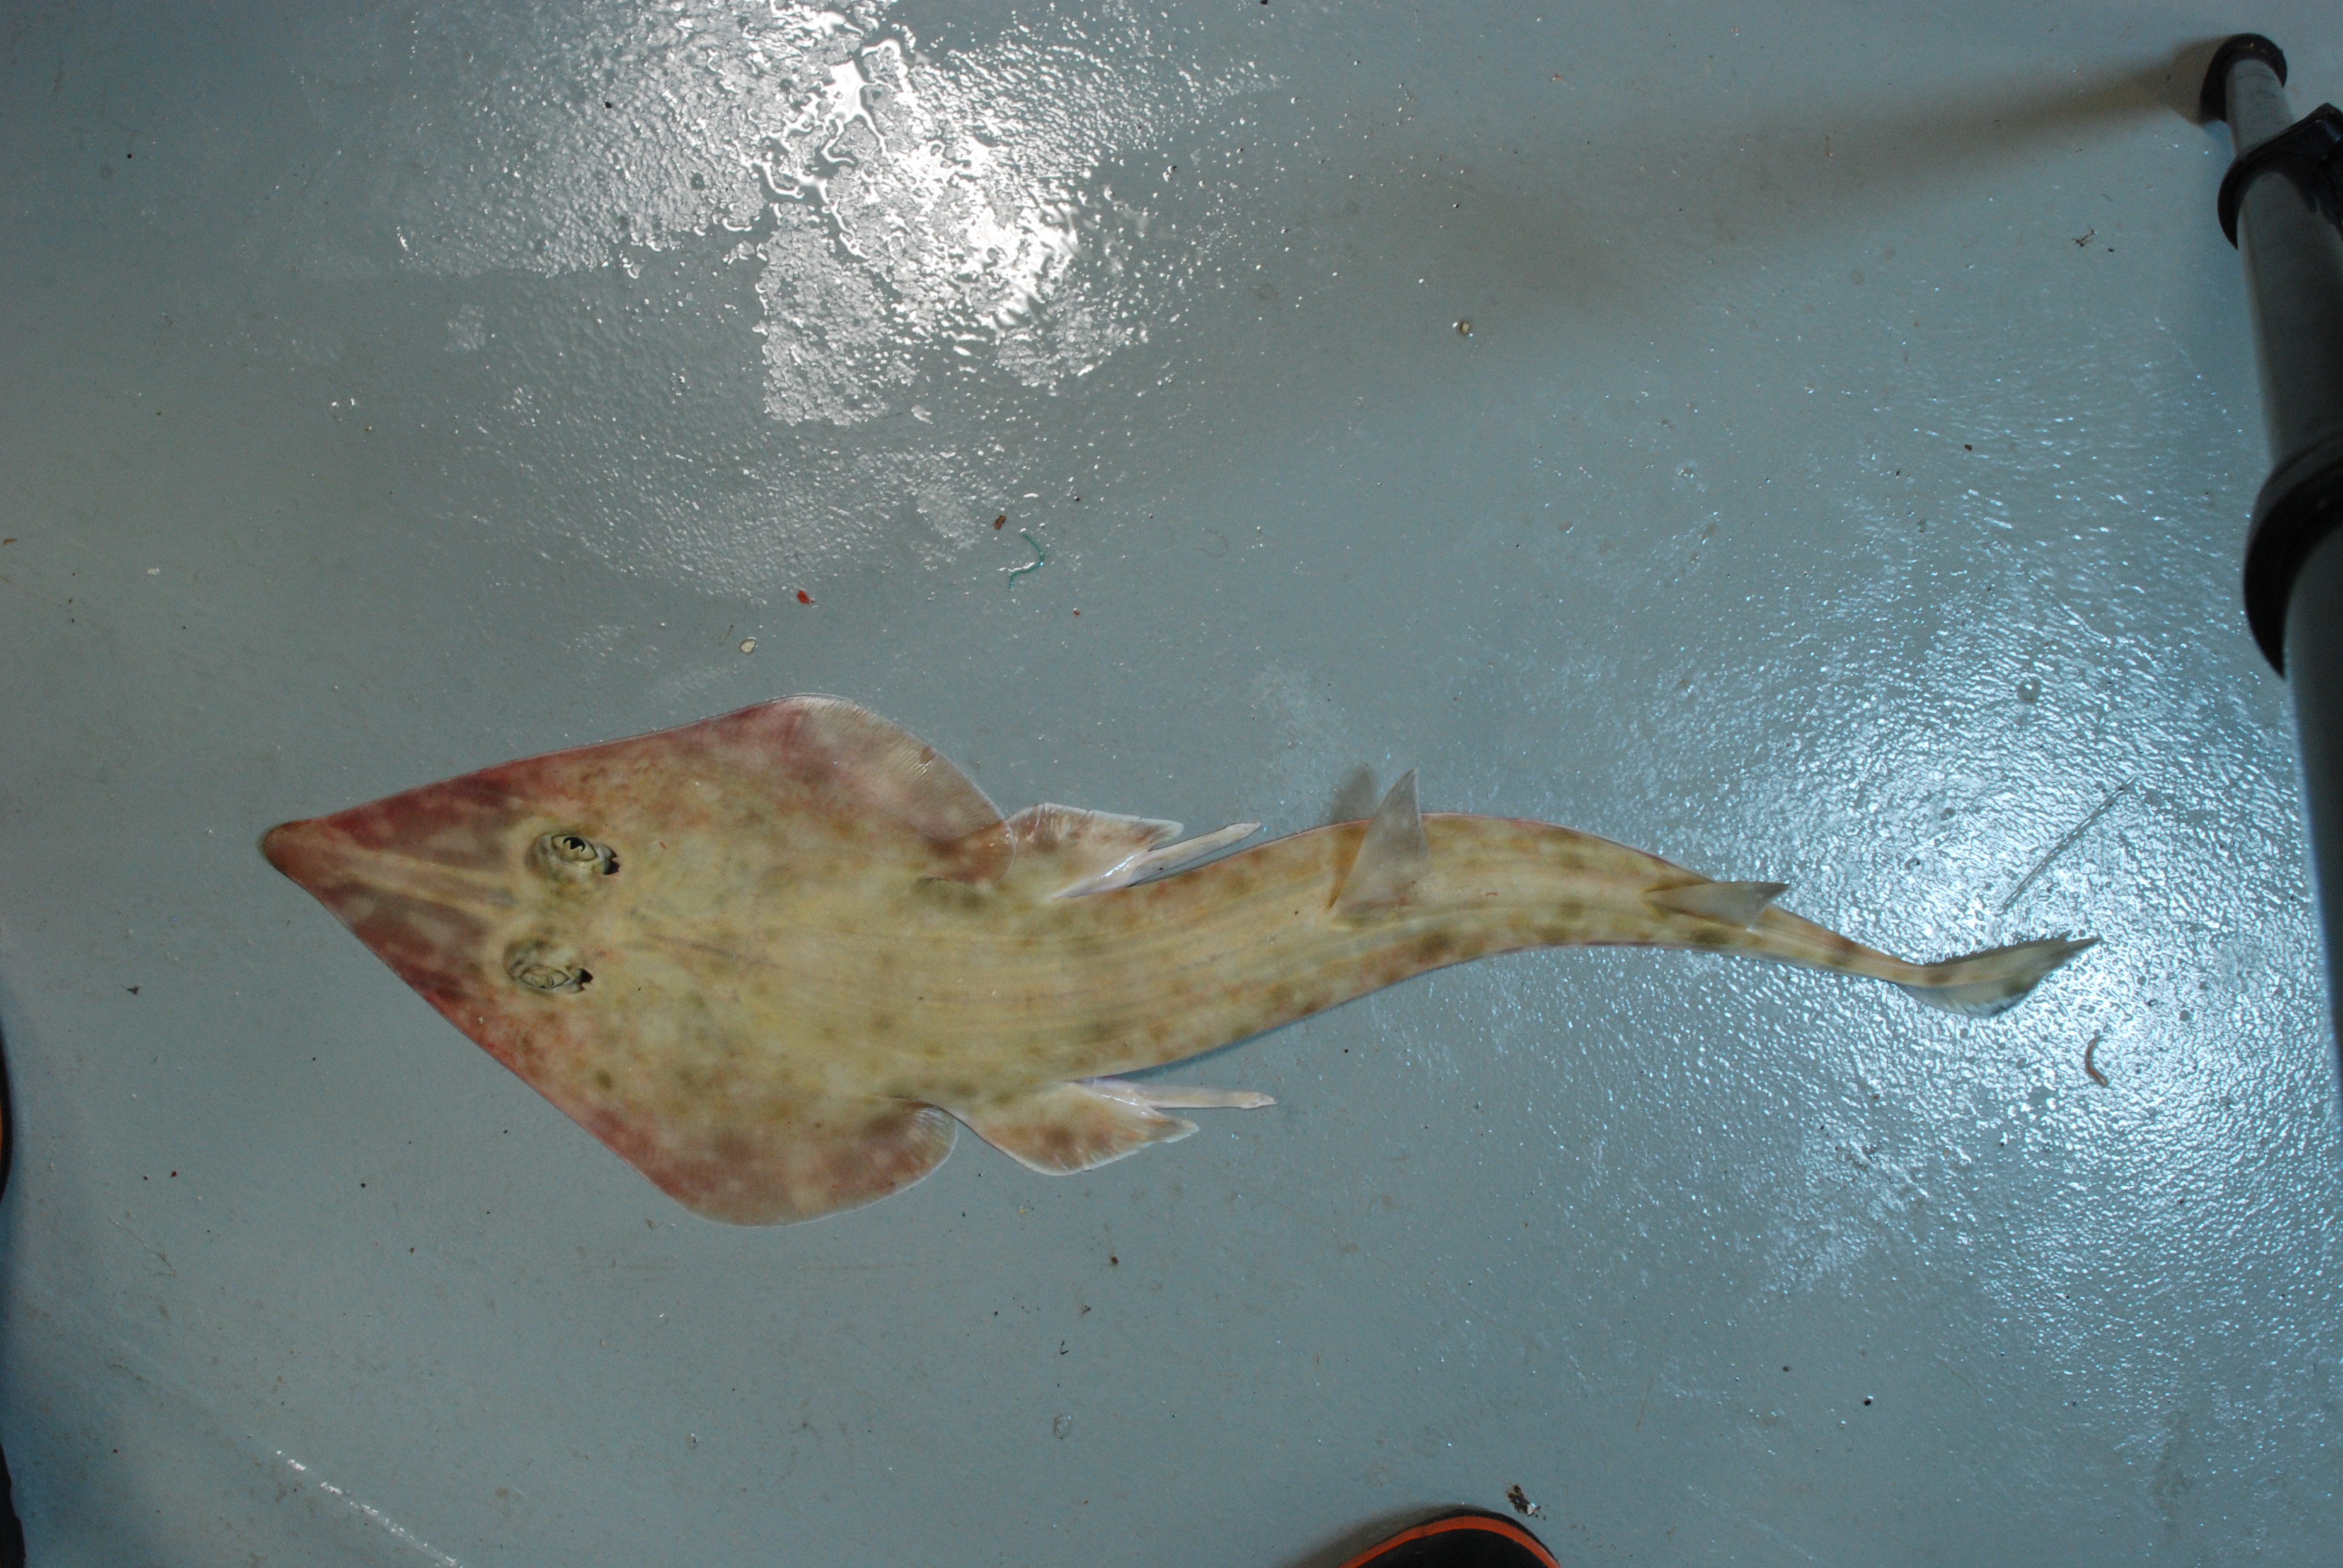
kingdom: Animalia
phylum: Chordata
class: Elasmobranchii
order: Rhinopristiformes
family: Rhinobatidae
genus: Rhinobatos
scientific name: Rhinobatos
